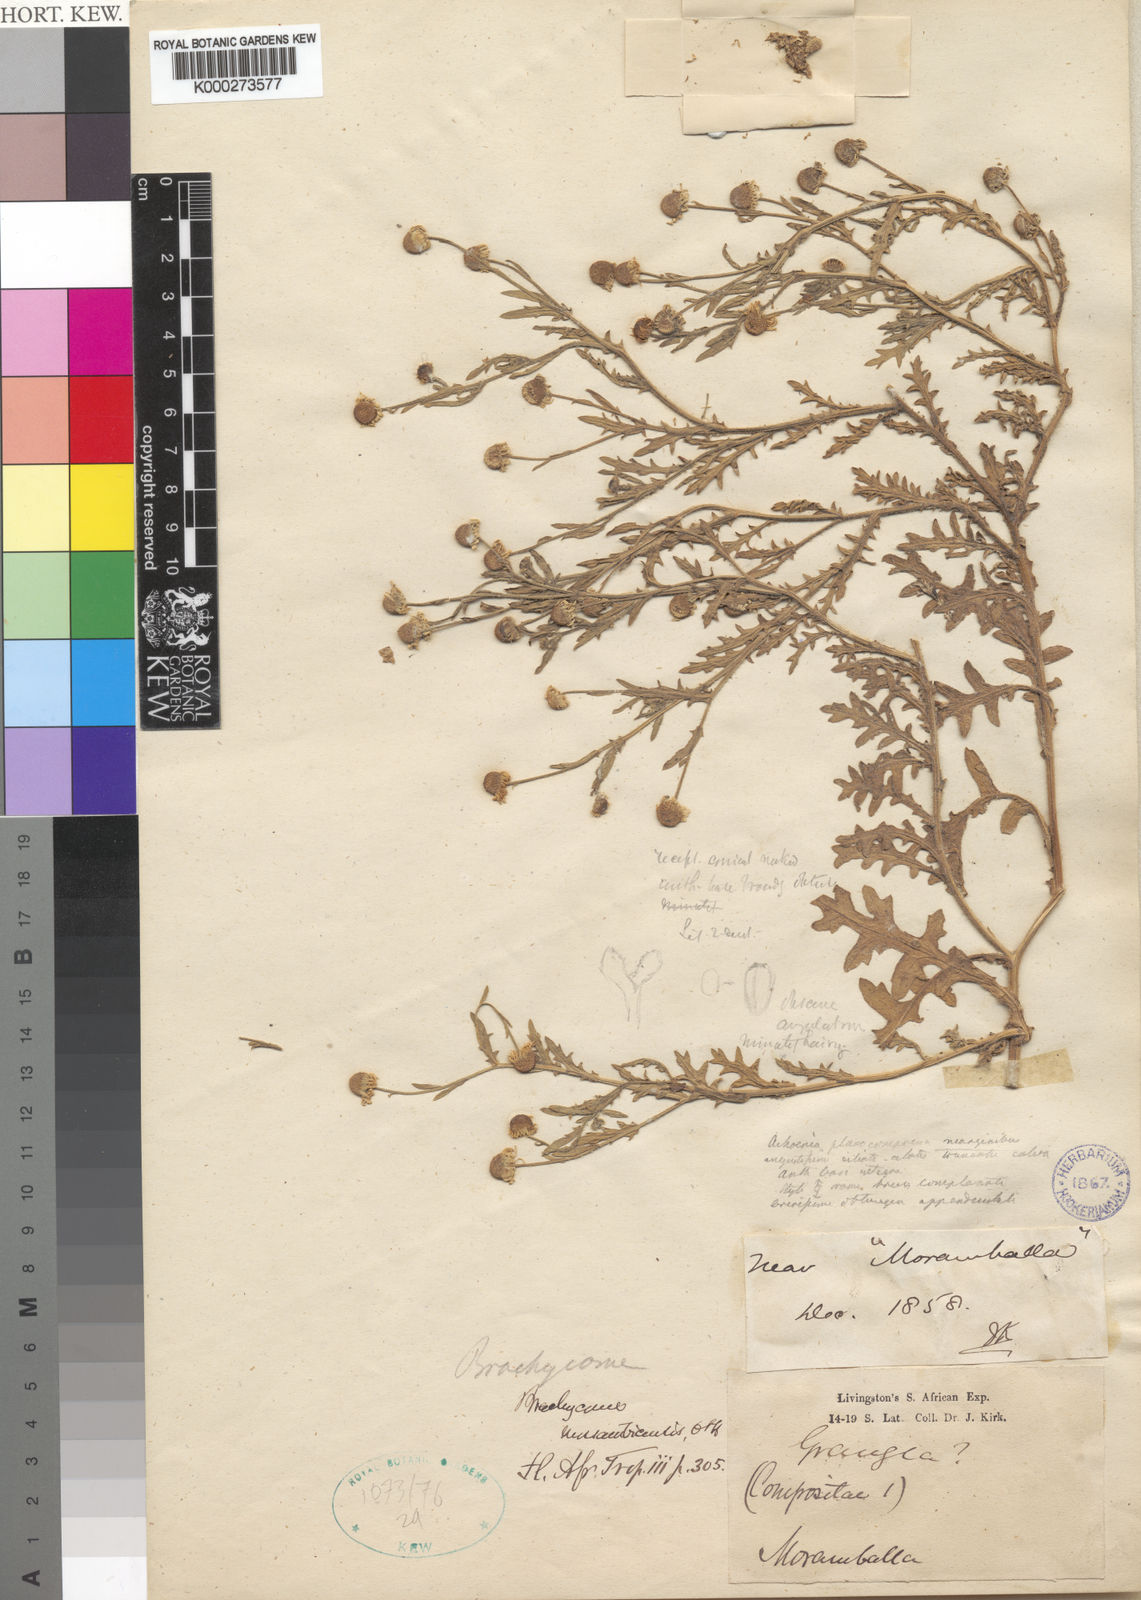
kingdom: Plantae
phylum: Tracheophyta
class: Magnoliopsida
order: Asterales
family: Asteraceae
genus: Gyrodoma
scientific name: Gyrodoma hispida
